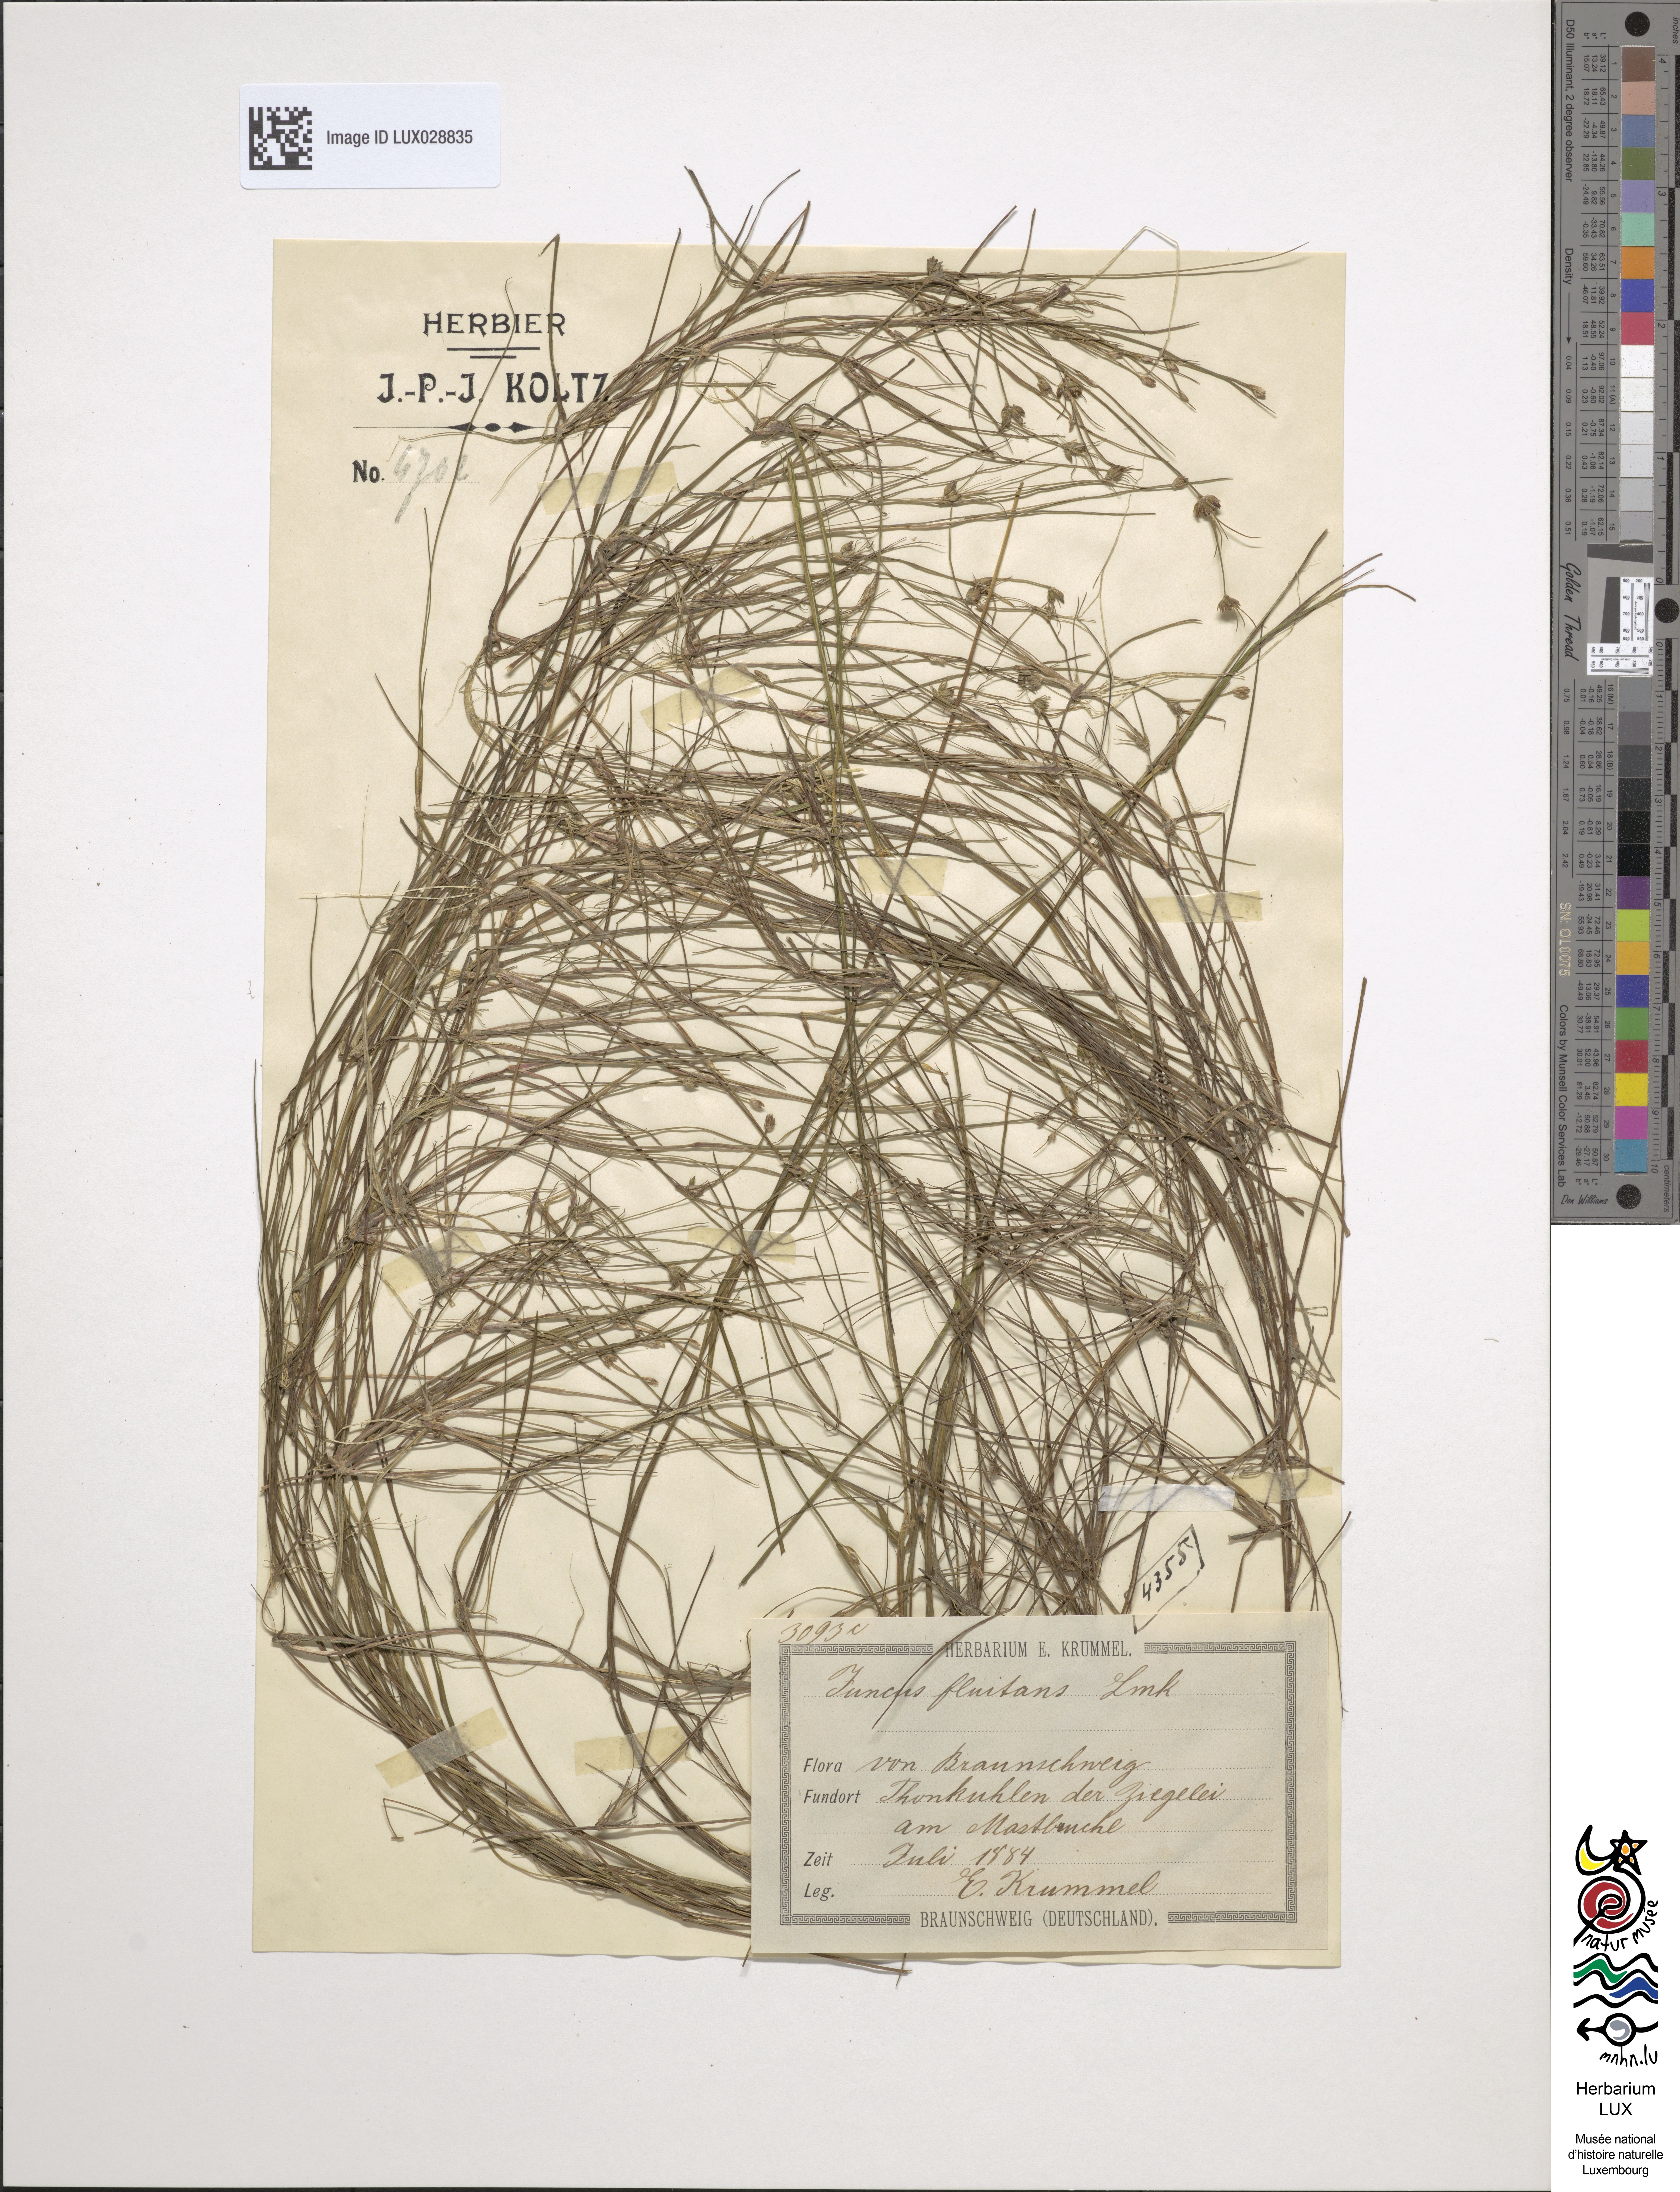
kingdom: Plantae
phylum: Tracheophyta
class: Liliopsida
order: Poales
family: Juncaceae
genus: Juncus
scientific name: Juncus bulbosus
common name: Bulbous rush
